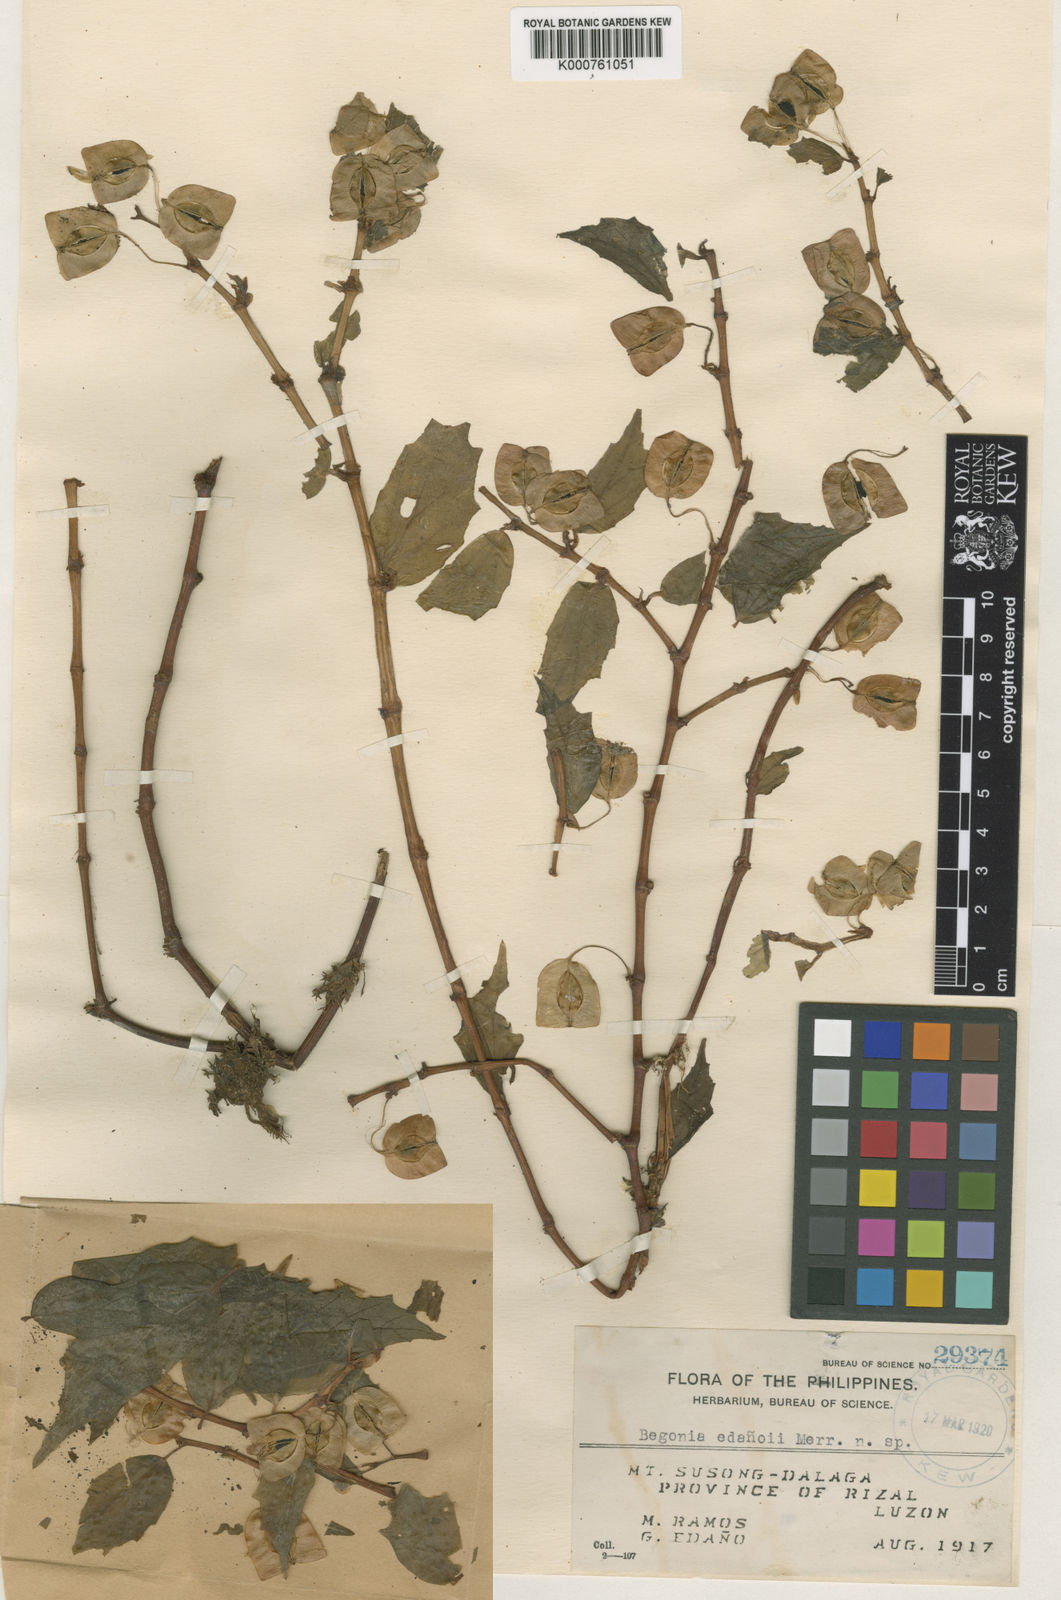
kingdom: Plantae
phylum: Tracheophyta
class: Magnoliopsida
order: Cucurbitales
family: Begoniaceae
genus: Begonia
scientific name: Begonia
